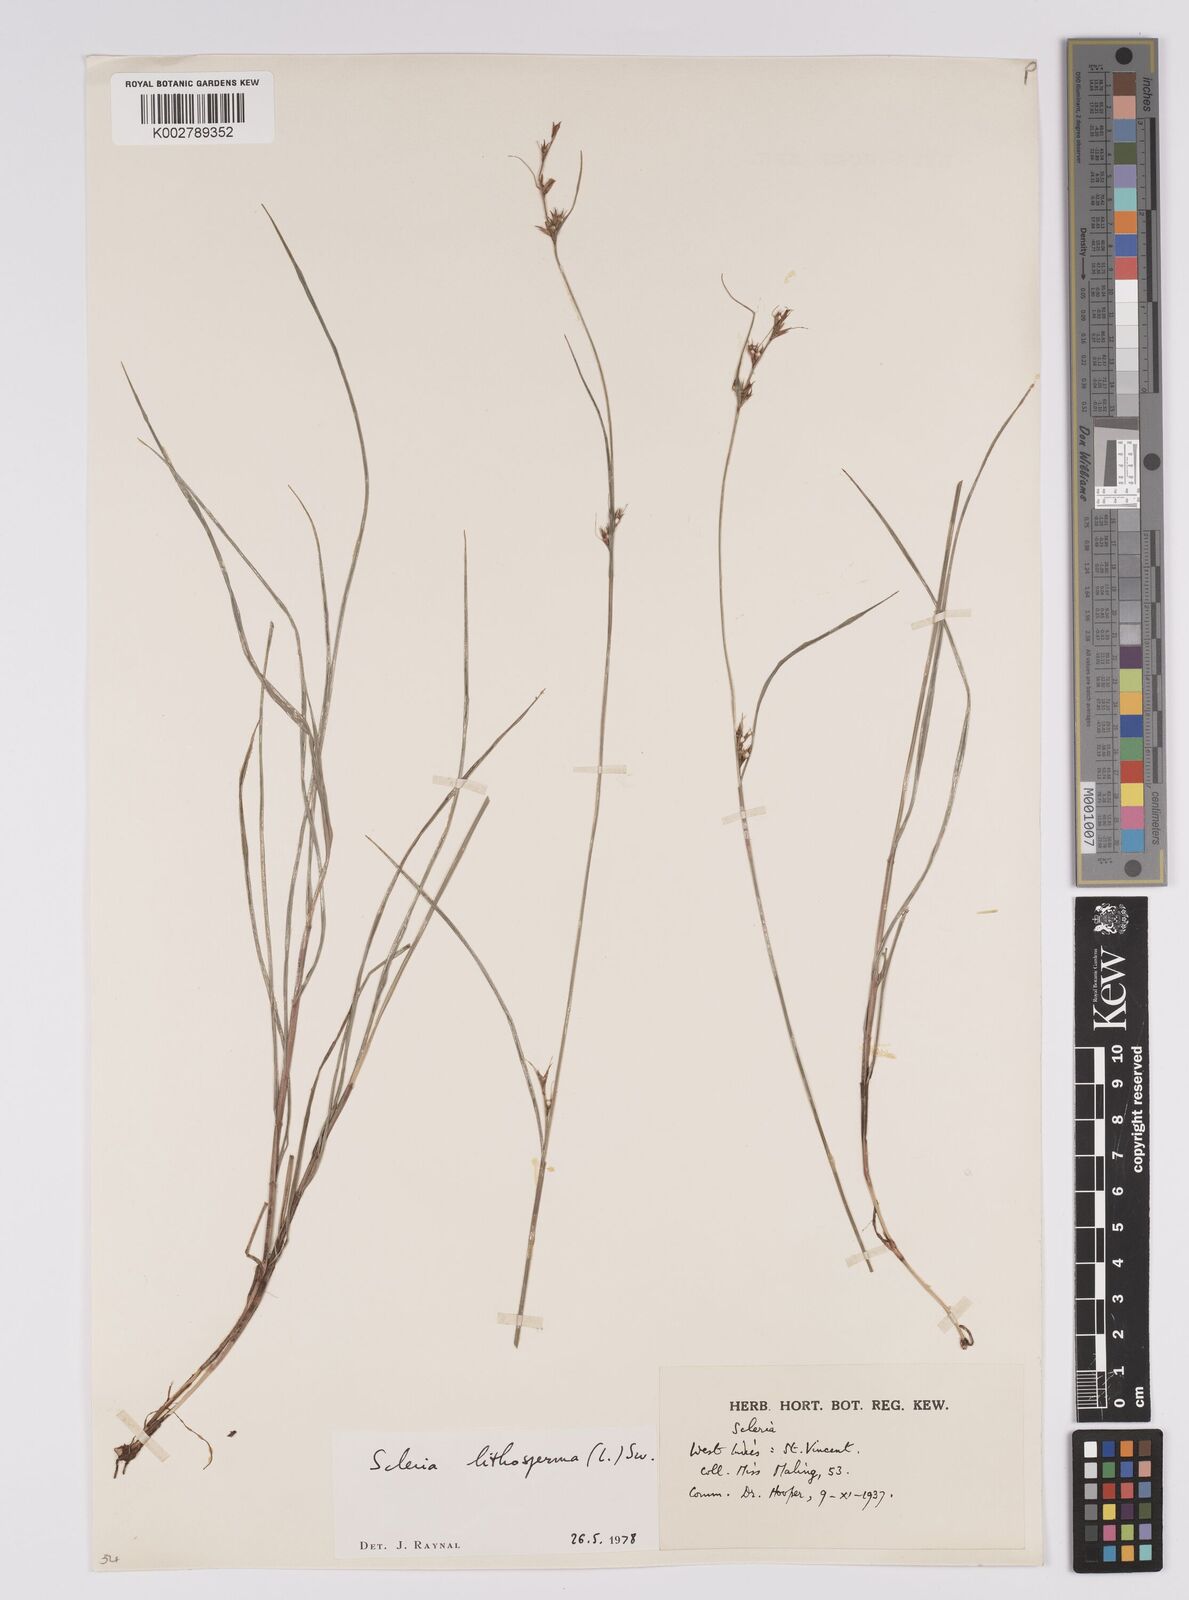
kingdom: Plantae
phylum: Tracheophyta
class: Liliopsida
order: Poales
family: Cyperaceae
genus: Scleria
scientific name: Scleria lithosperma
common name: Florida keys nut-rush
